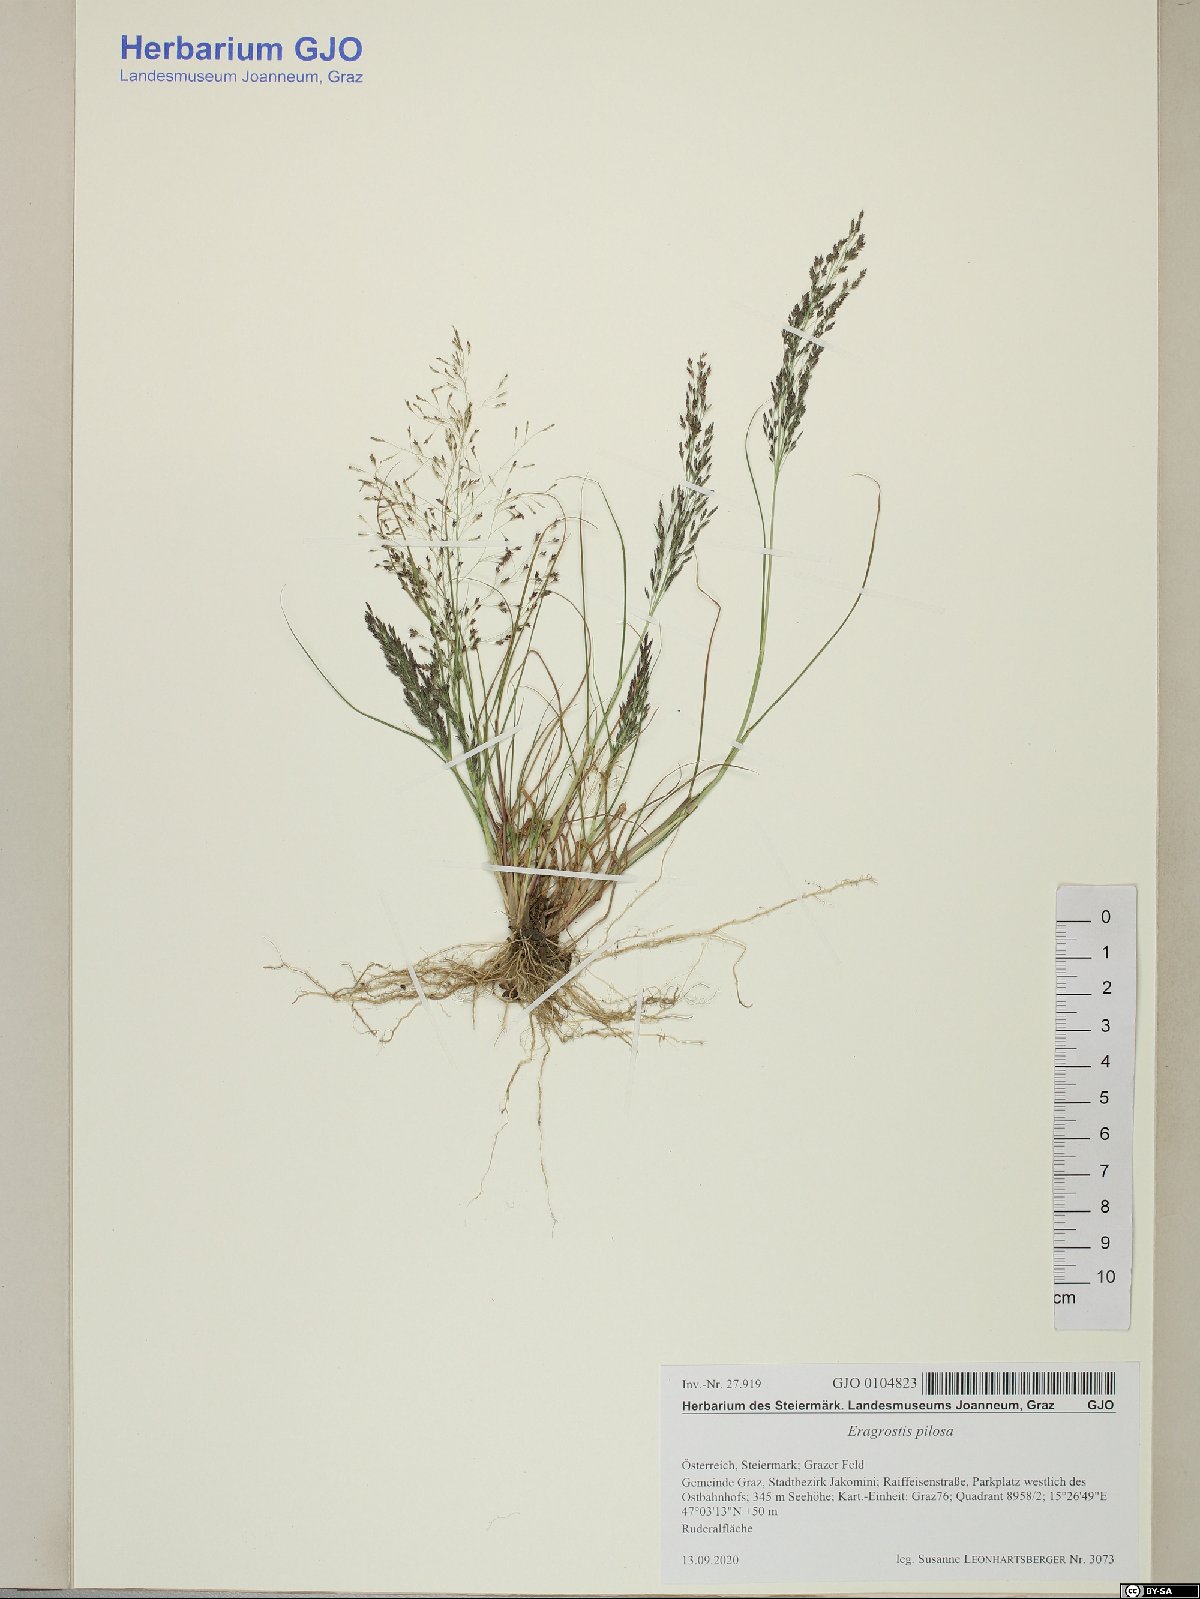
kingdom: Plantae
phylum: Tracheophyta
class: Liliopsida
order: Poales
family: Poaceae
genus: Eragrostis
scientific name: Eragrostis pilosa
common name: Indian lovegrass
